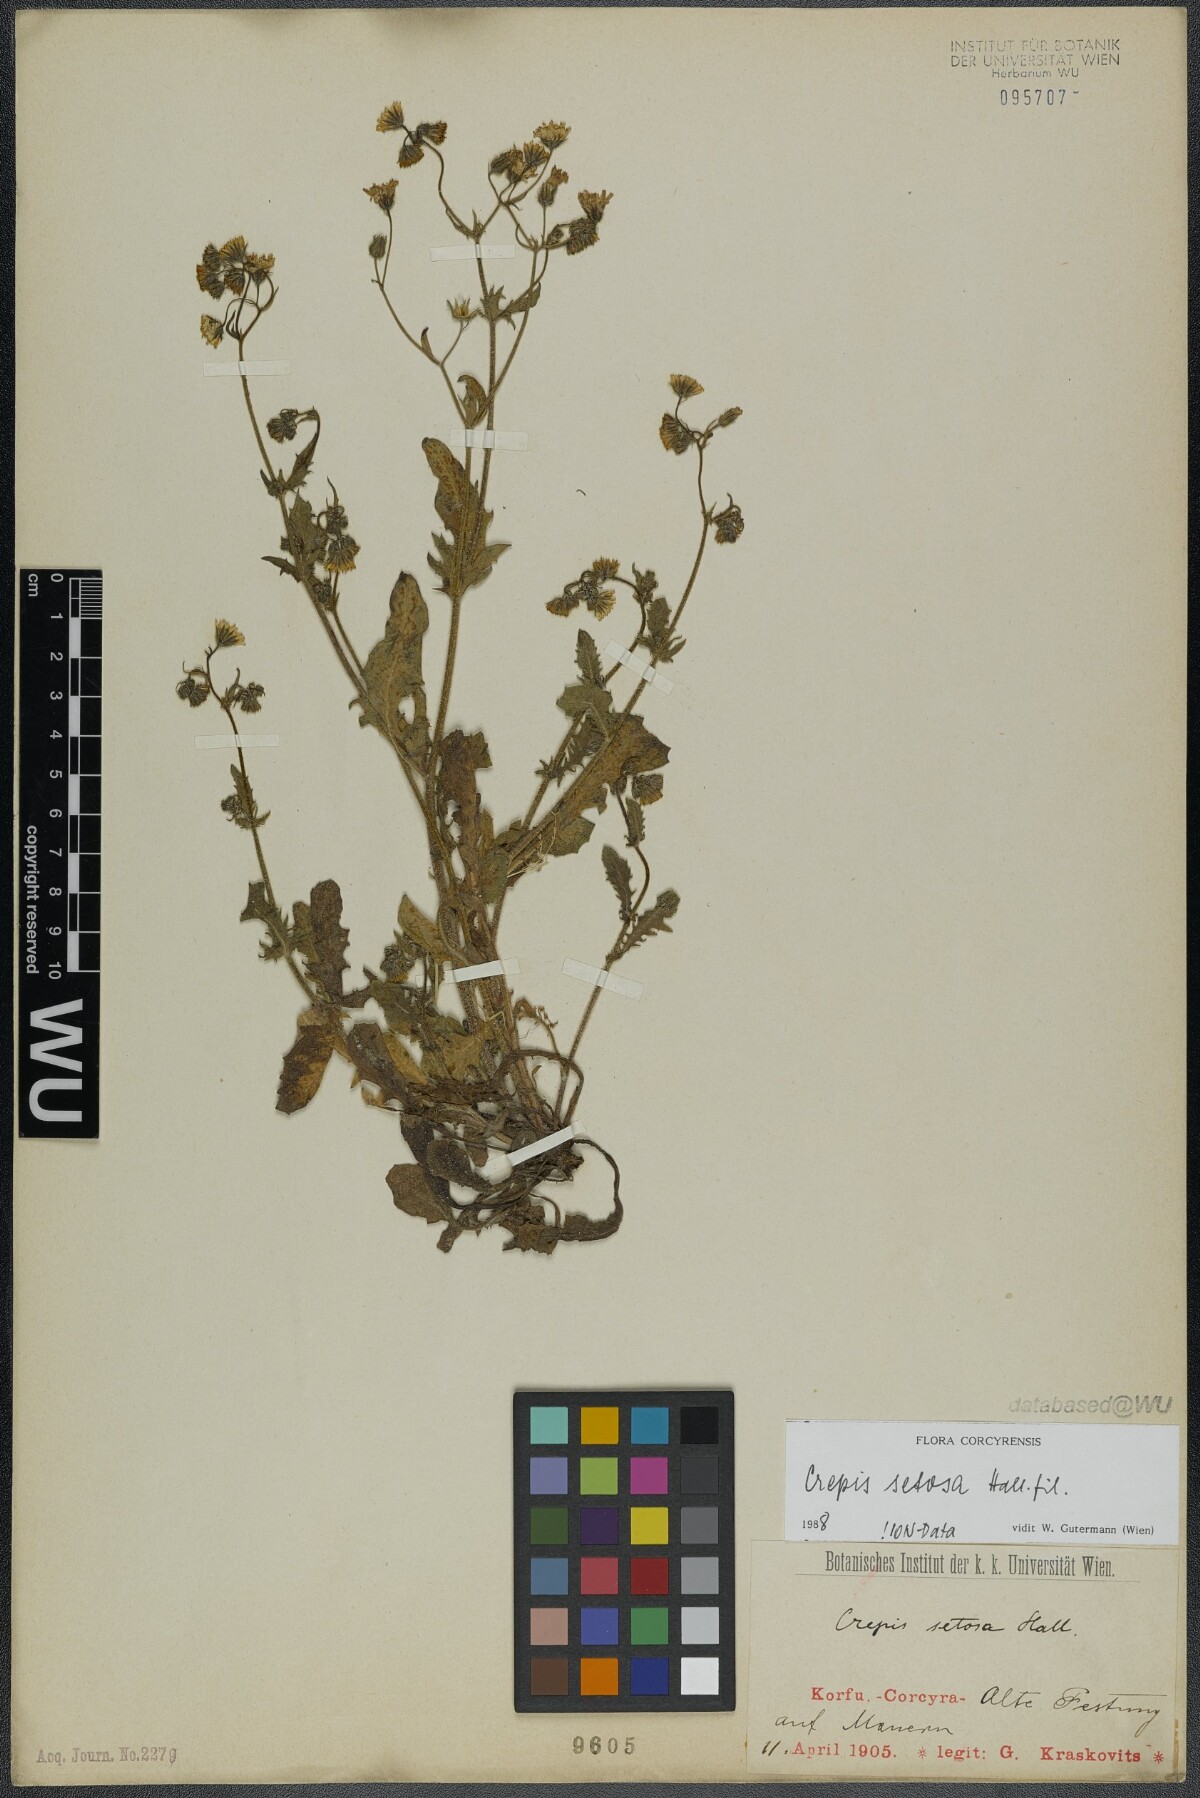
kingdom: Plantae
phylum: Tracheophyta
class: Magnoliopsida
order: Asterales
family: Asteraceae
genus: Crepis
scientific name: Crepis setosa
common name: Bristly hawk's-beard
